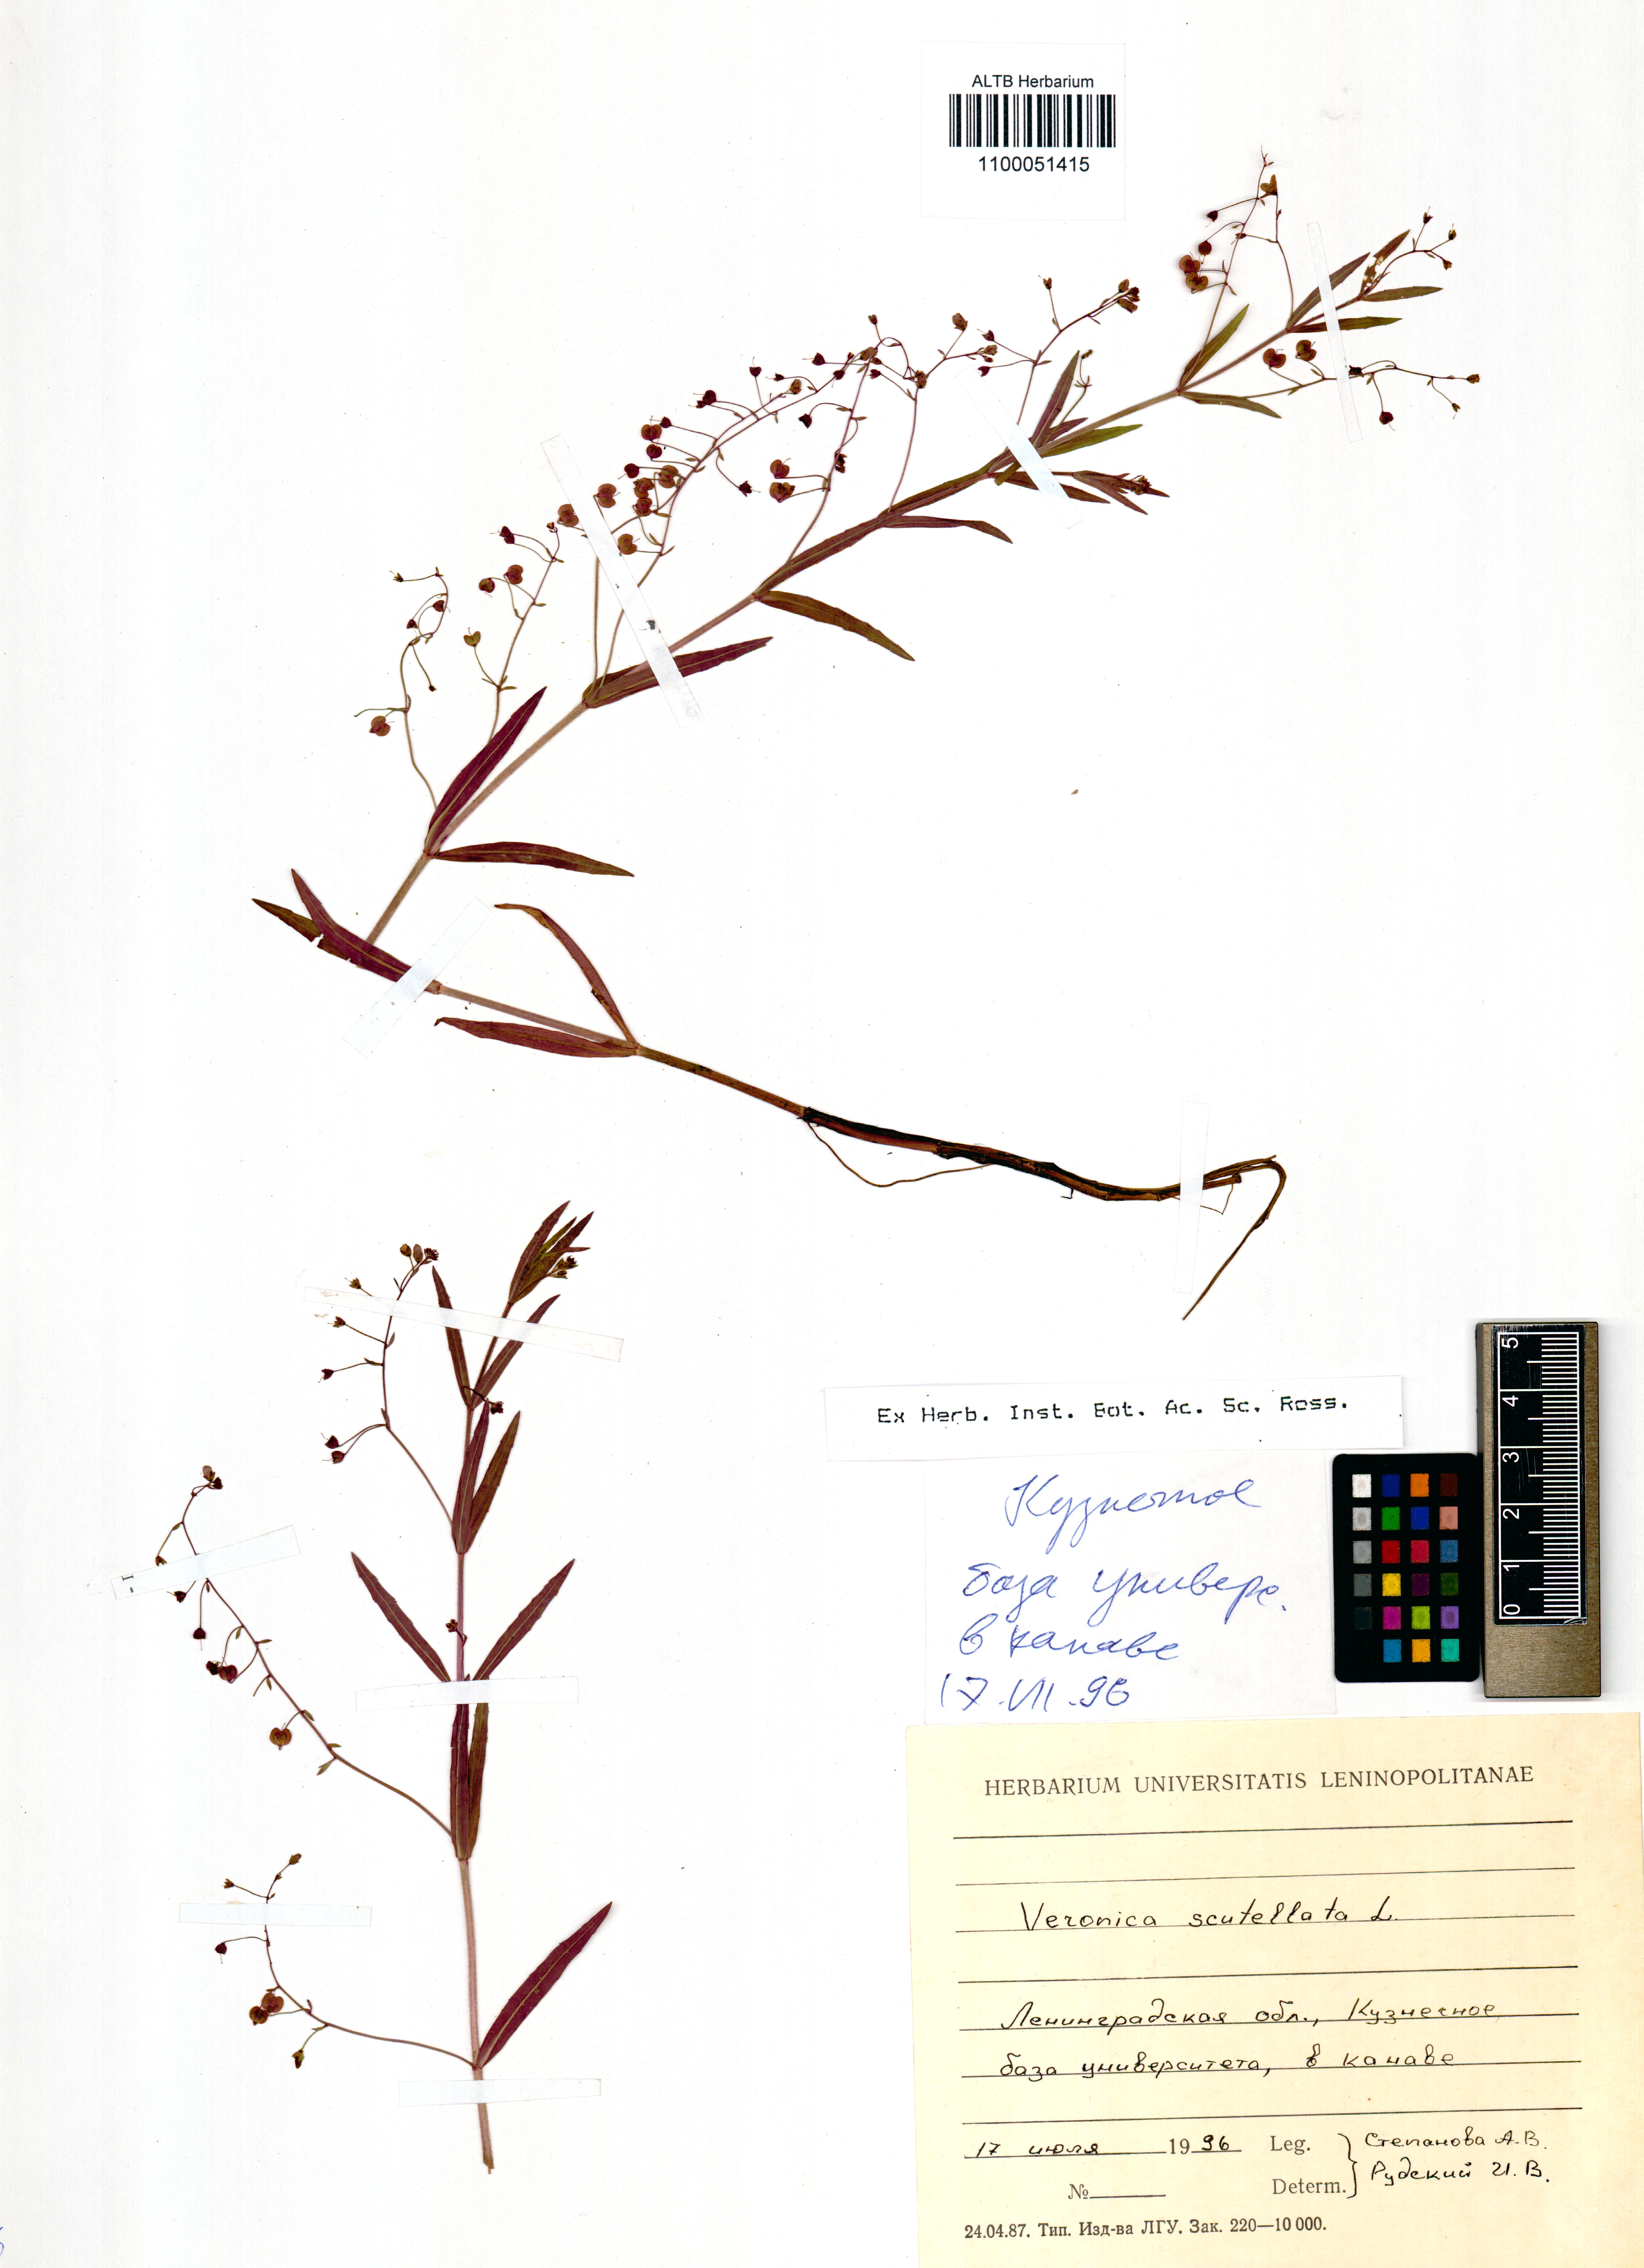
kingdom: Plantae
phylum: Tracheophyta
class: Magnoliopsida
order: Lamiales
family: Plantaginaceae
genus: Veronica
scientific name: Veronica scutellata
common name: Marsh speedwell
